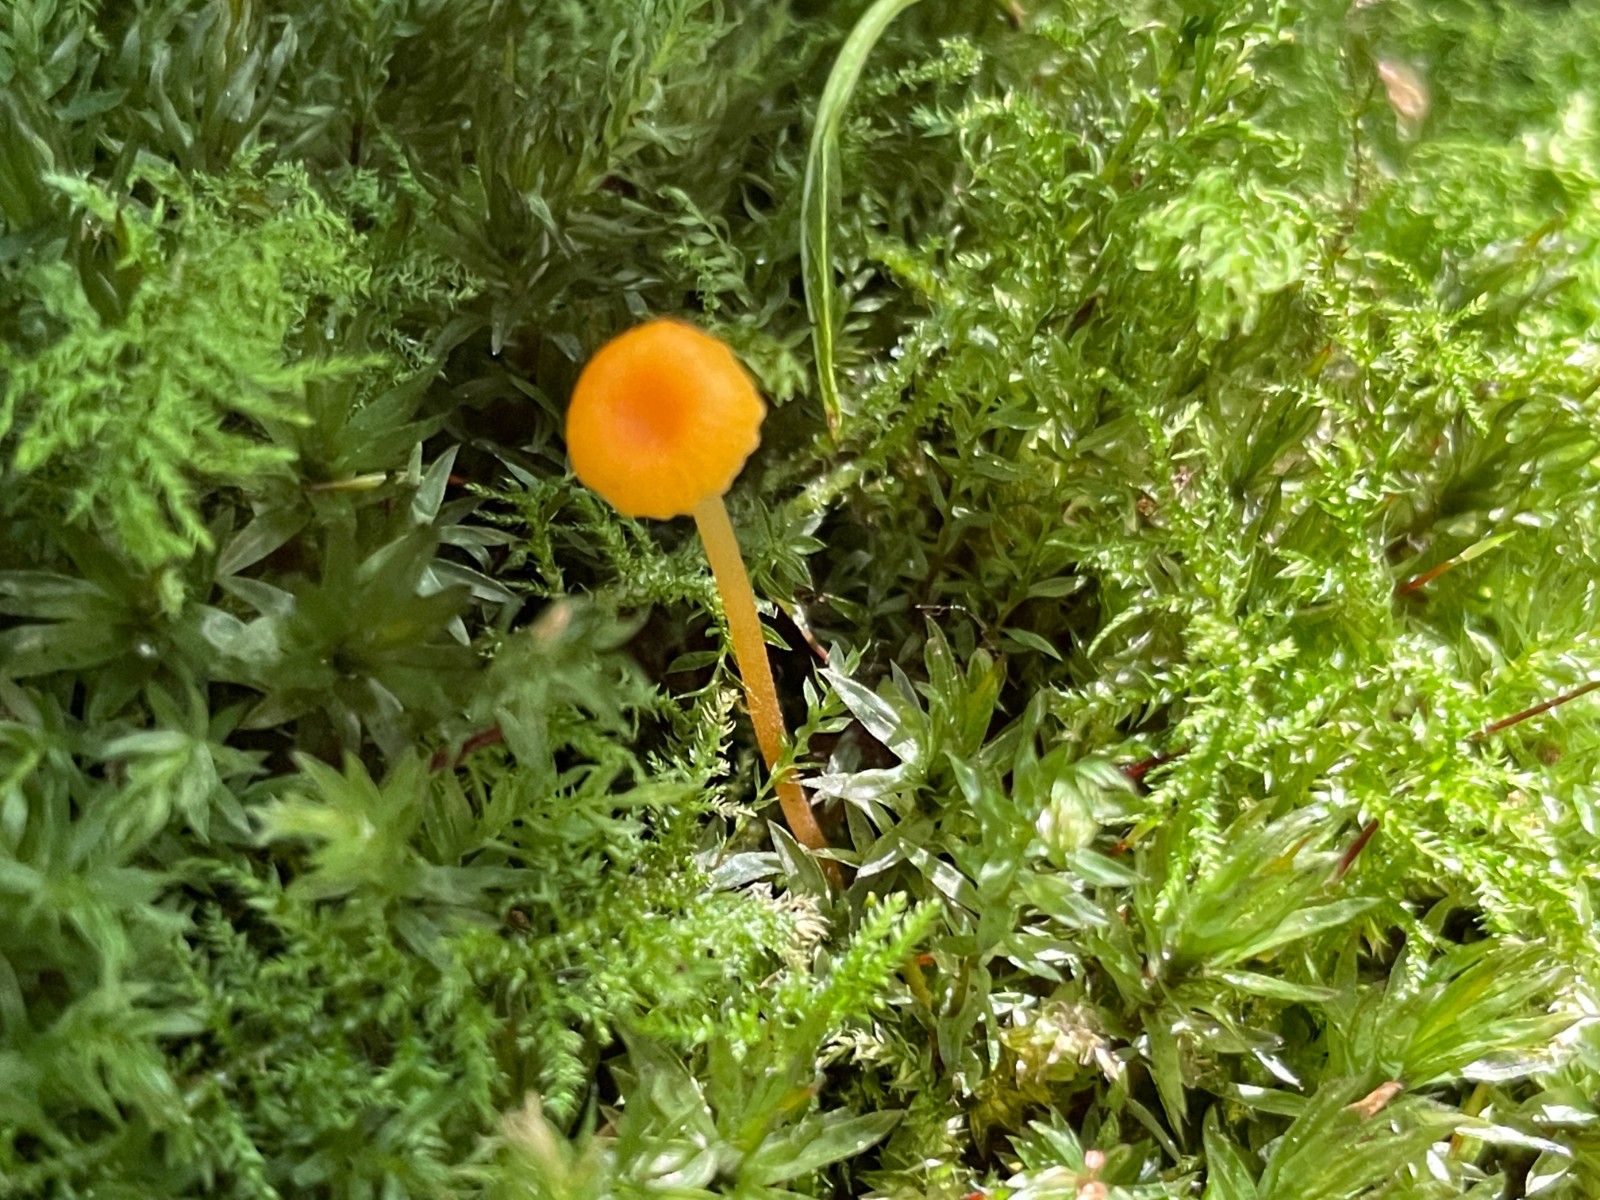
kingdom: Fungi
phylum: Basidiomycota
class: Agaricomycetes
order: Hymenochaetales
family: Rickenellaceae
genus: Rickenella
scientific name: Rickenella fibula
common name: orange mosnavlehat
